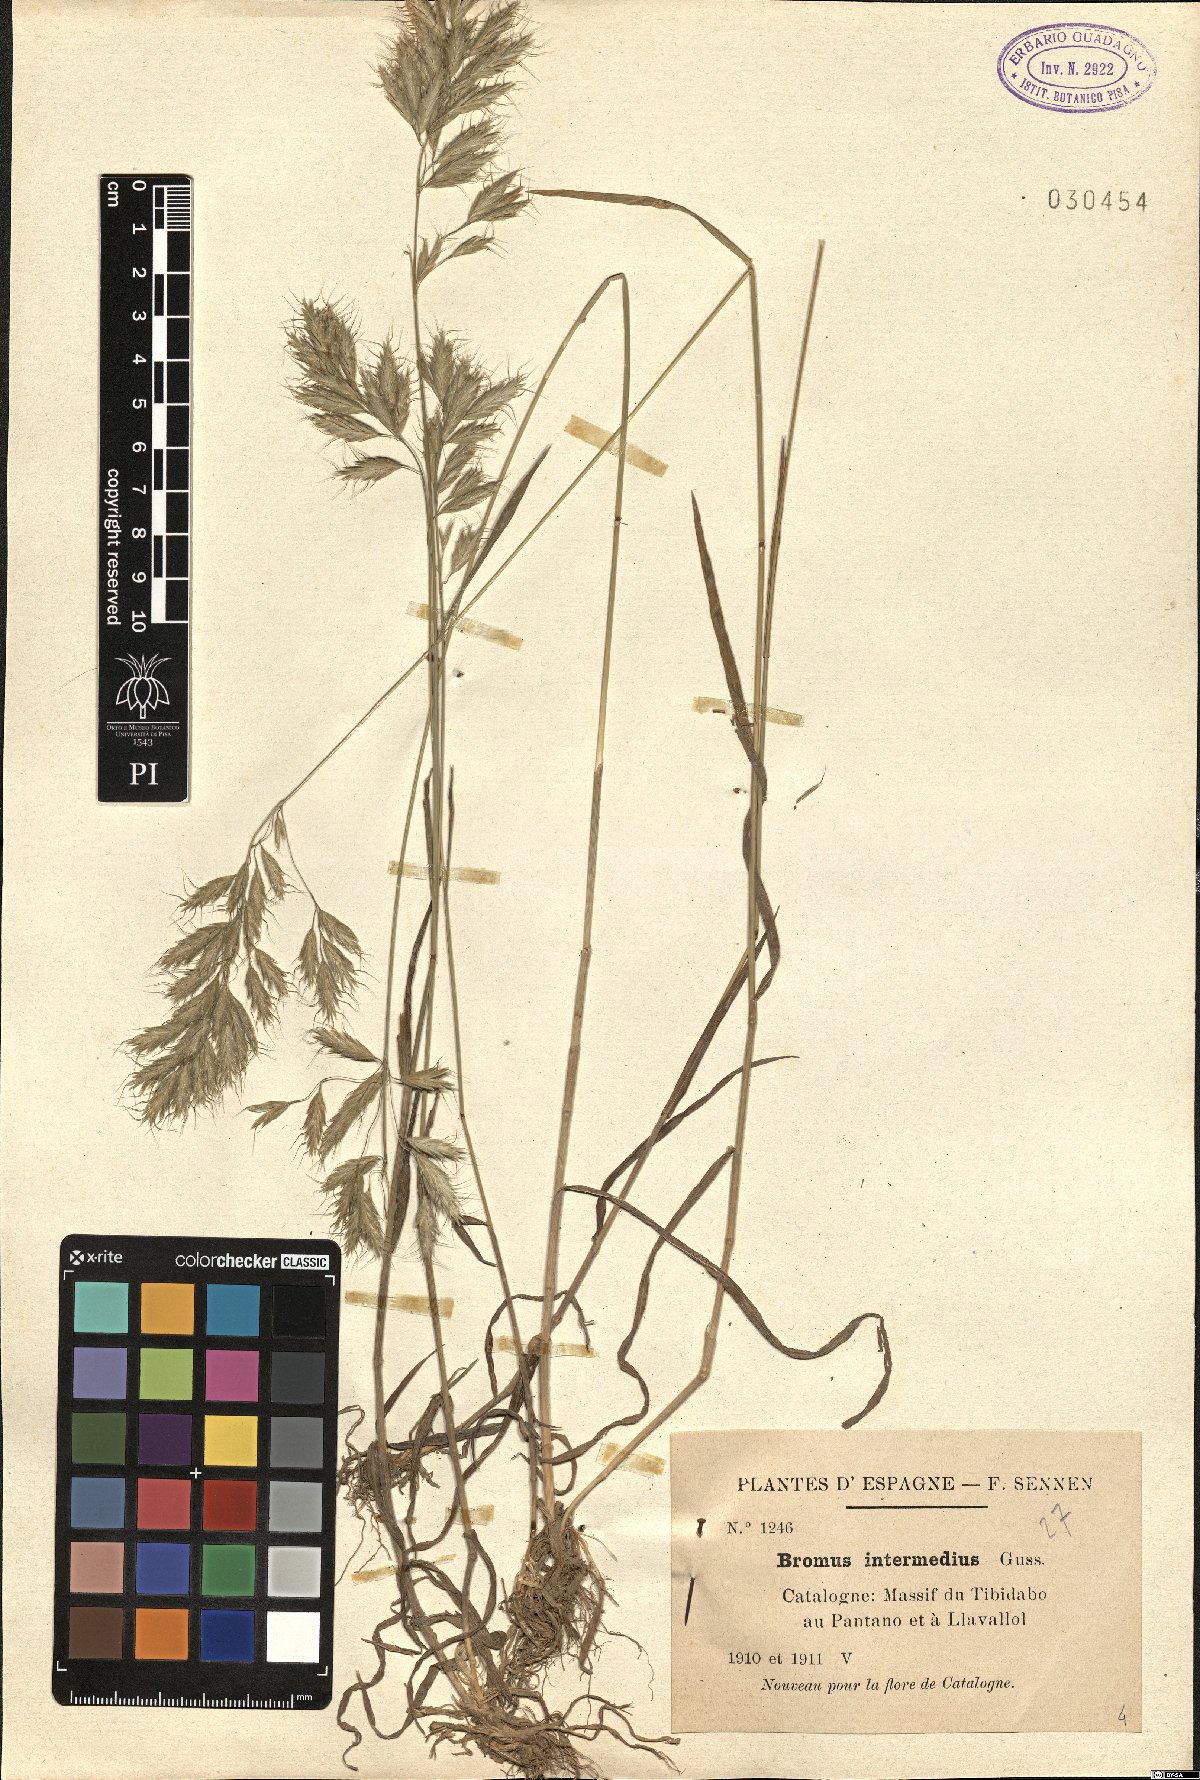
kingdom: Plantae
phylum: Tracheophyta
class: Liliopsida
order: Poales
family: Poaceae
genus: Bromus
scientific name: Bromus intermedius
